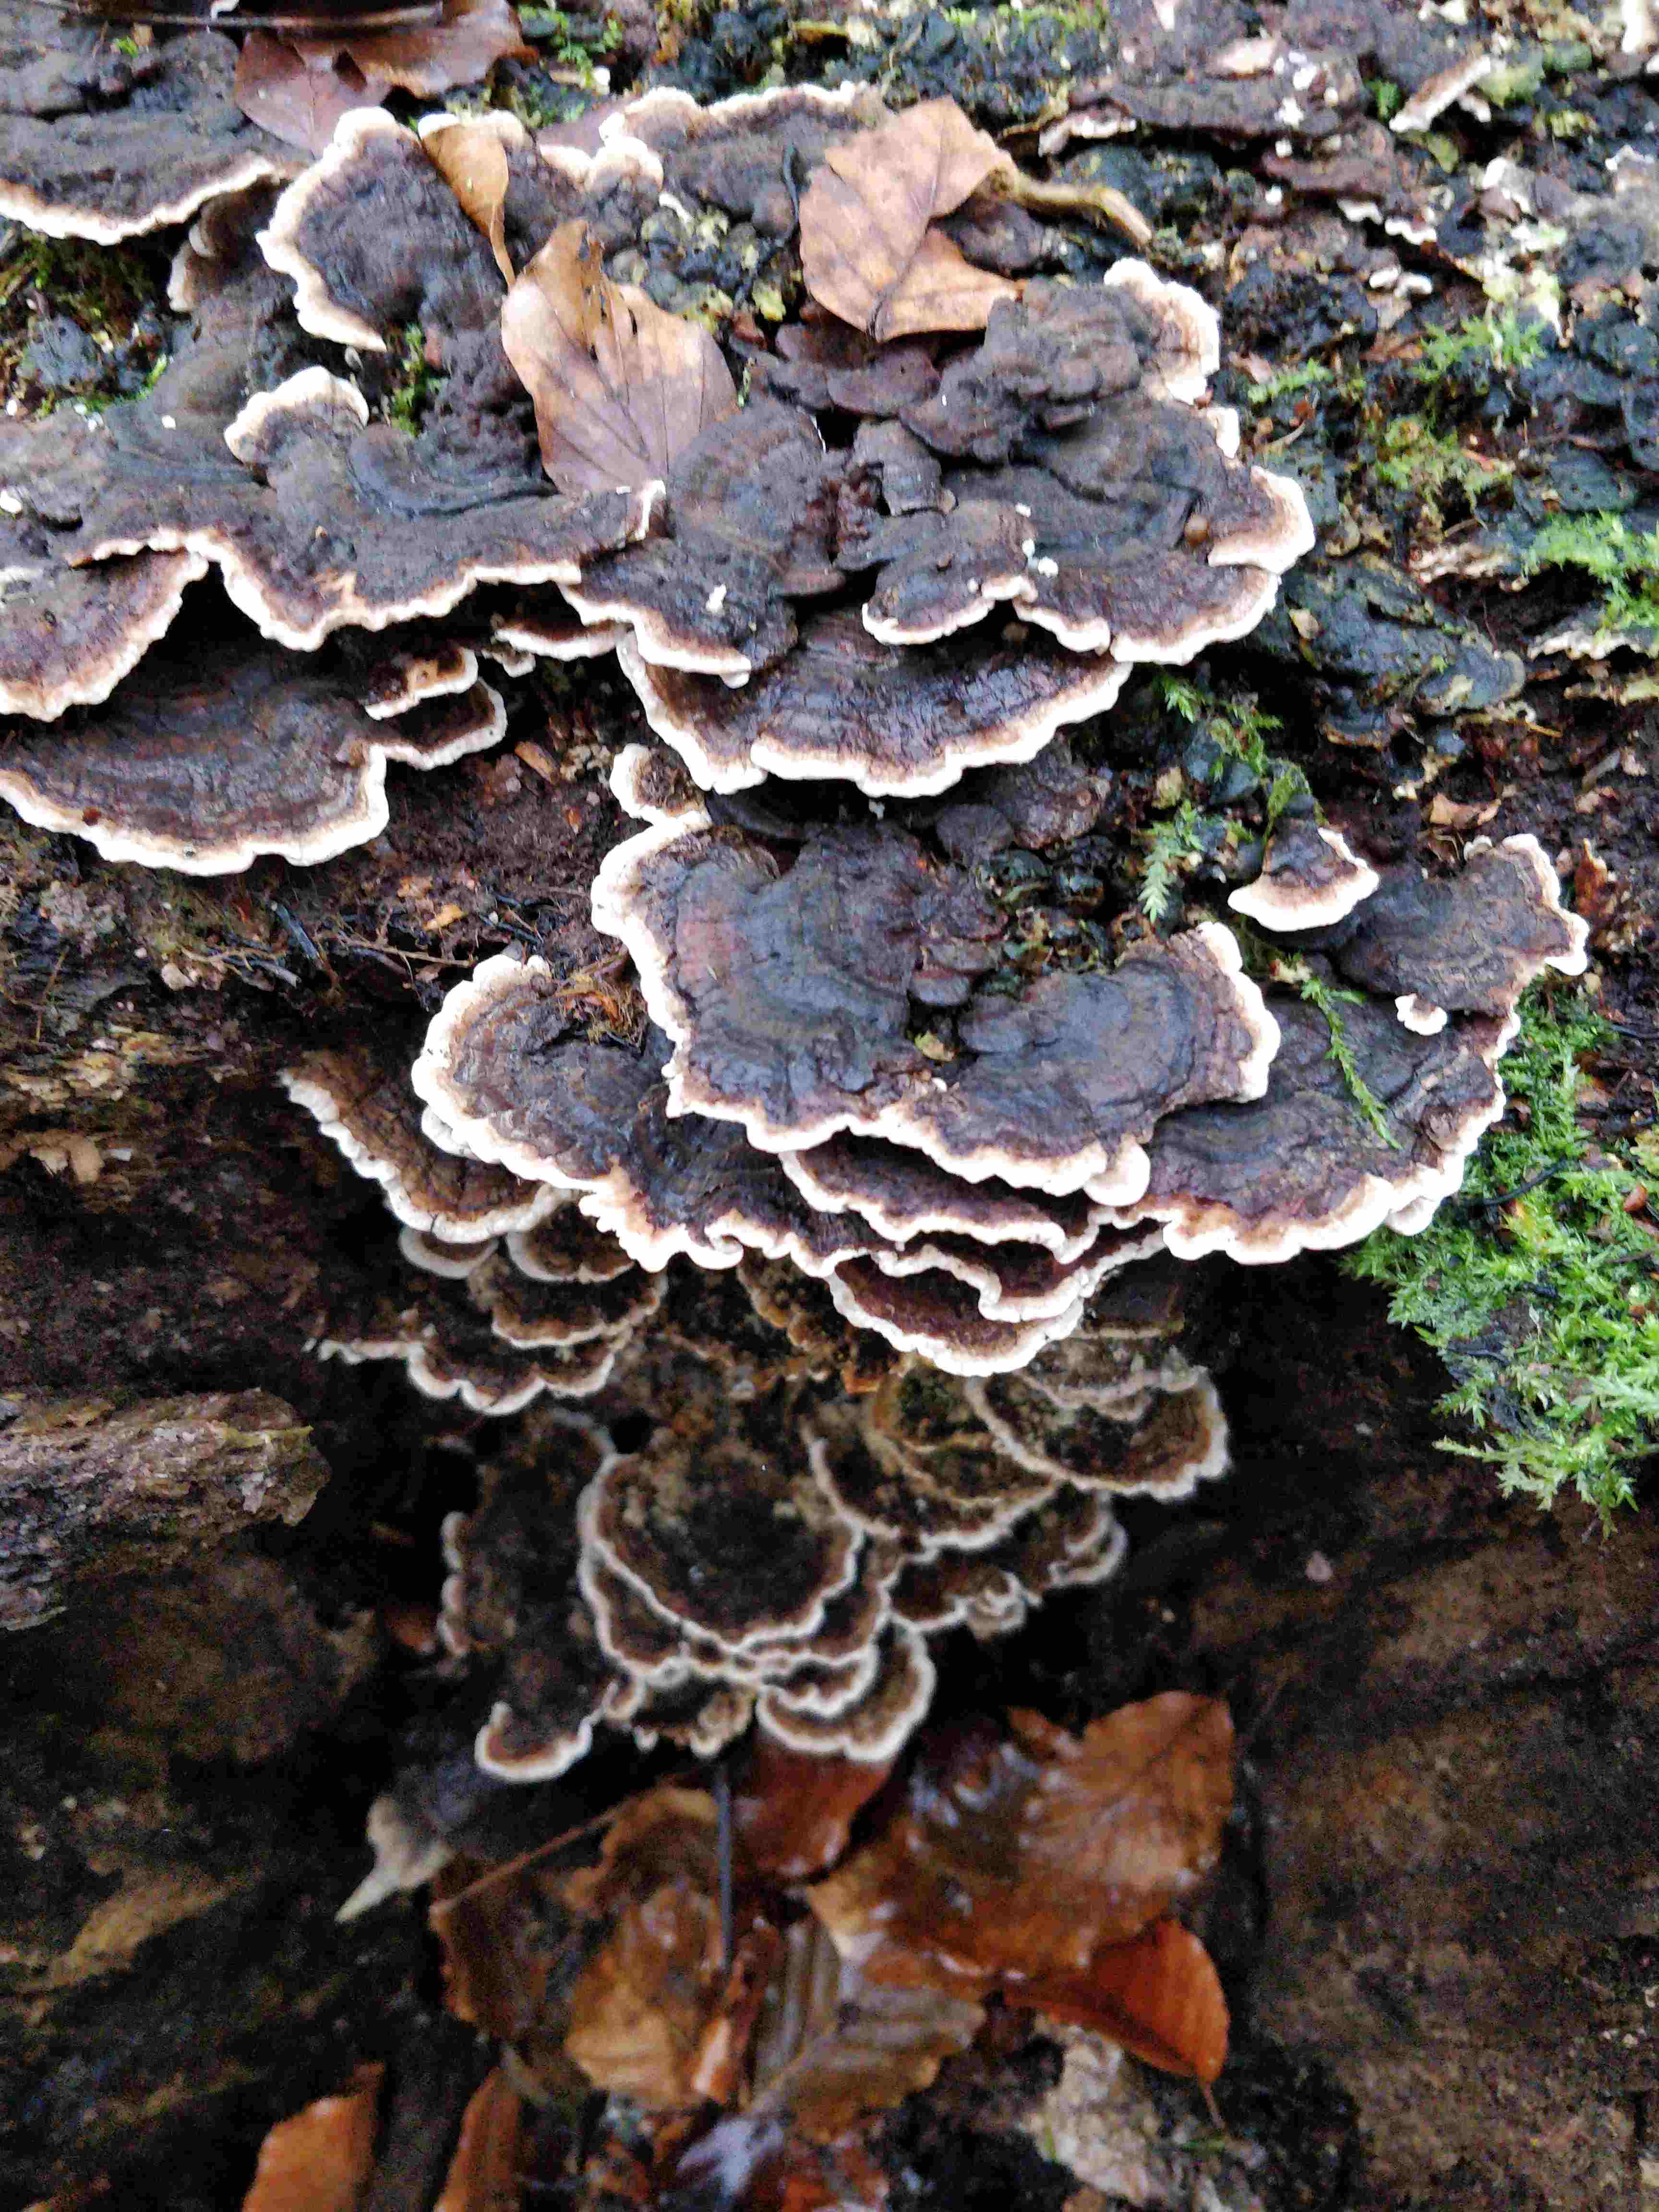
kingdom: Fungi
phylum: Basidiomycota
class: Agaricomycetes
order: Polyporales
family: Polyporaceae
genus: Trametes
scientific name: Trametes versicolor
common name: broget læderporesvamp
